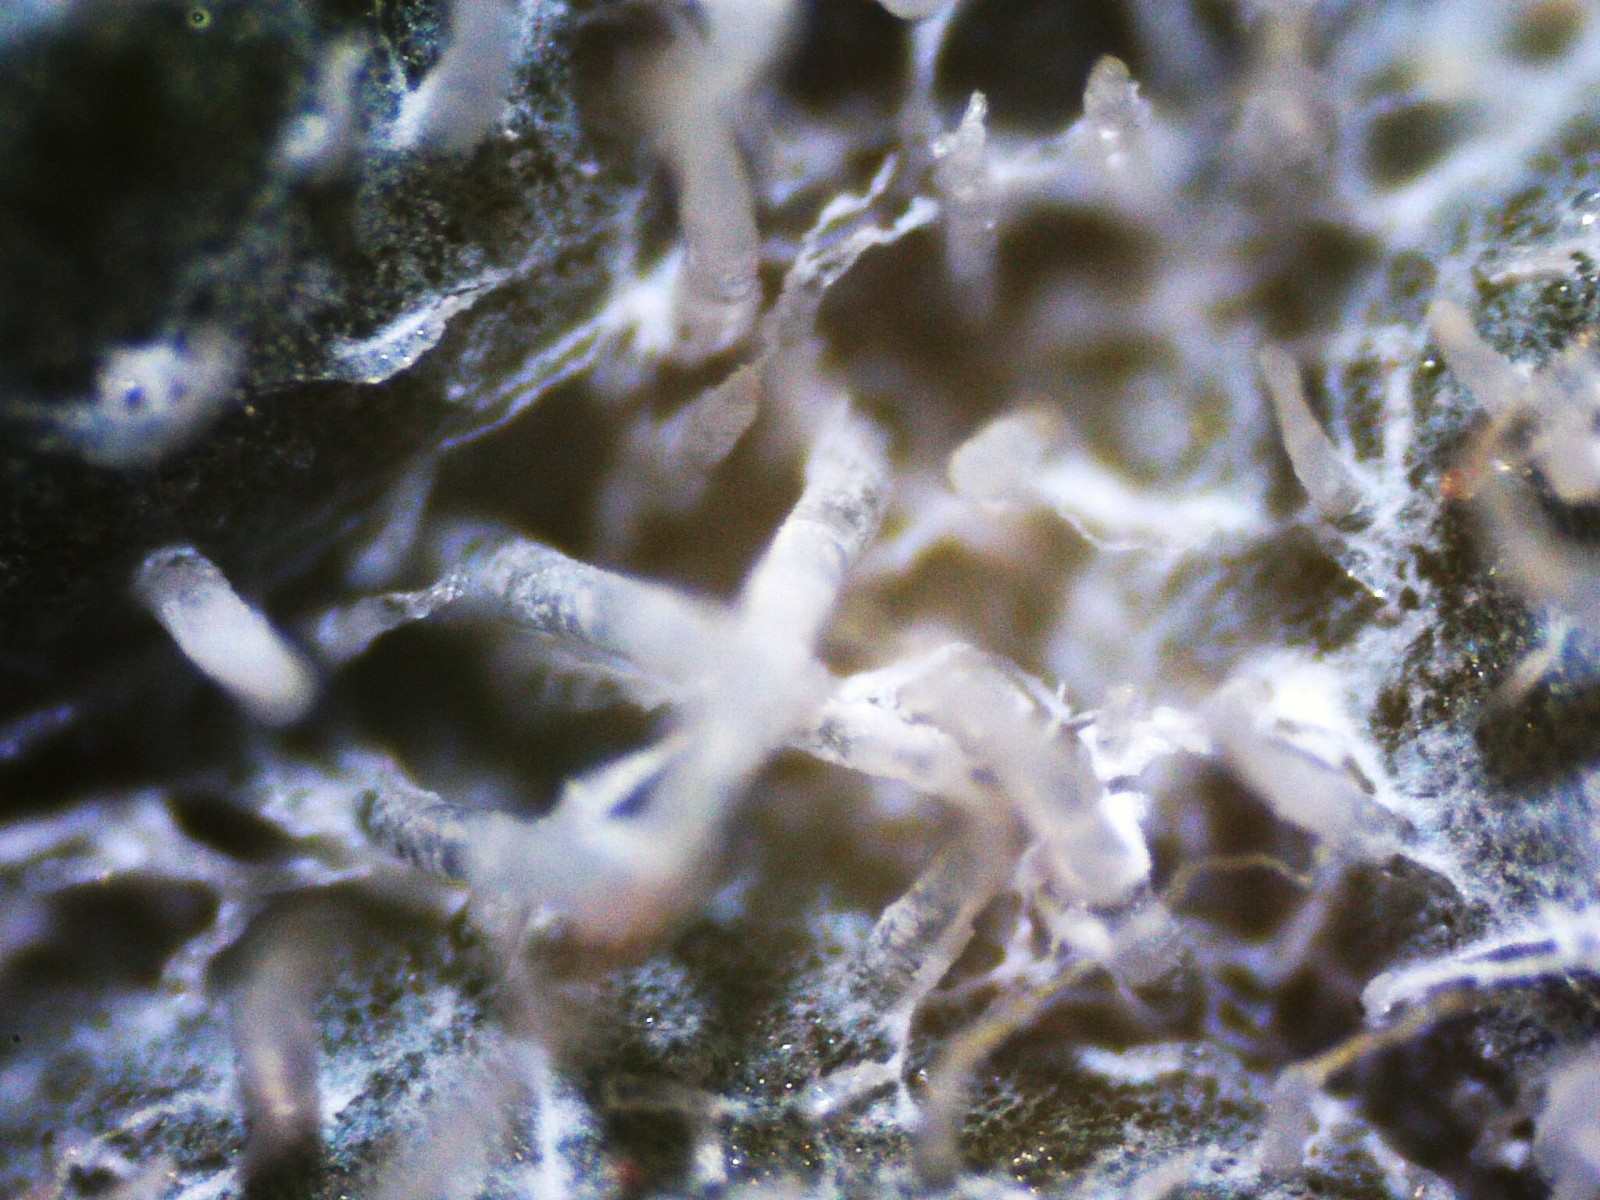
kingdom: Fungi
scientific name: Fungi
